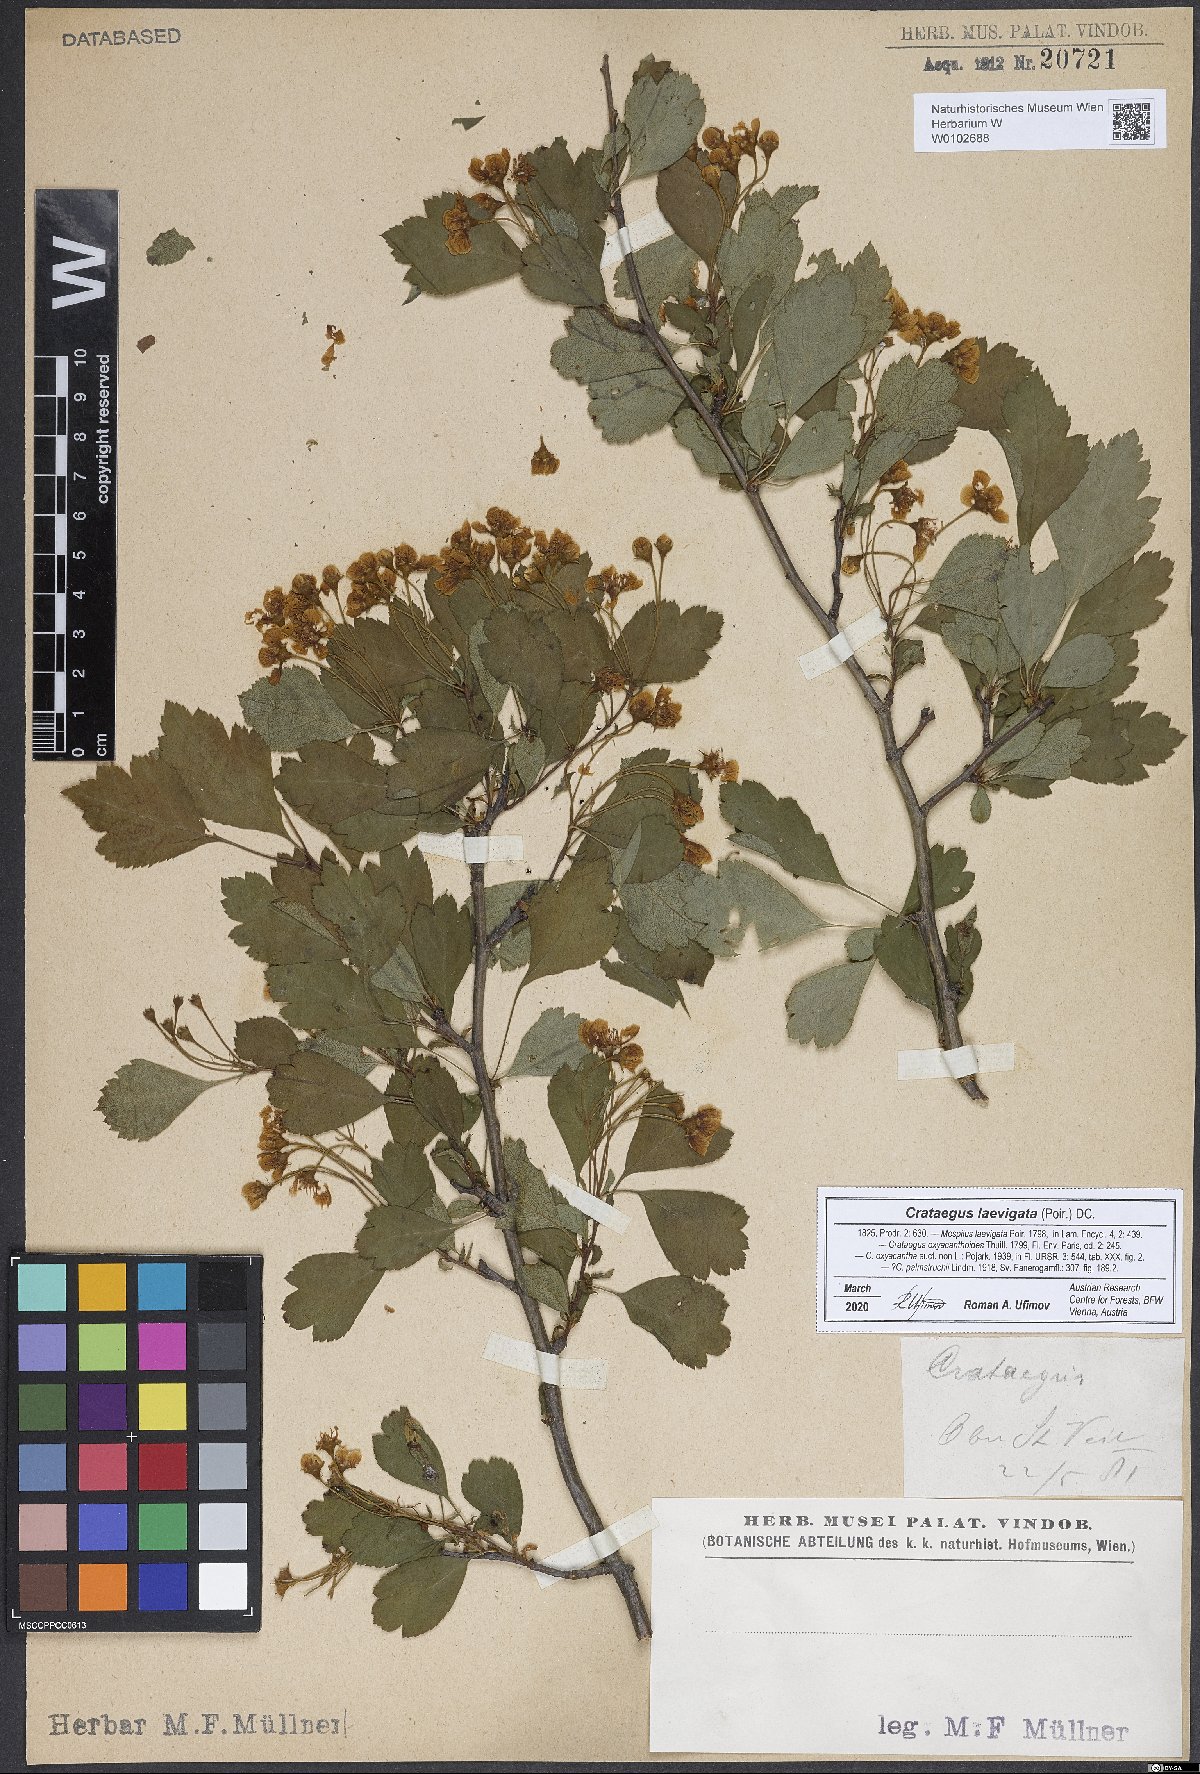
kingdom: Plantae
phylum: Tracheophyta
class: Magnoliopsida
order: Rosales
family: Rosaceae
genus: Crataegus
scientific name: Crataegus laevigata
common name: Midland hawthorn
